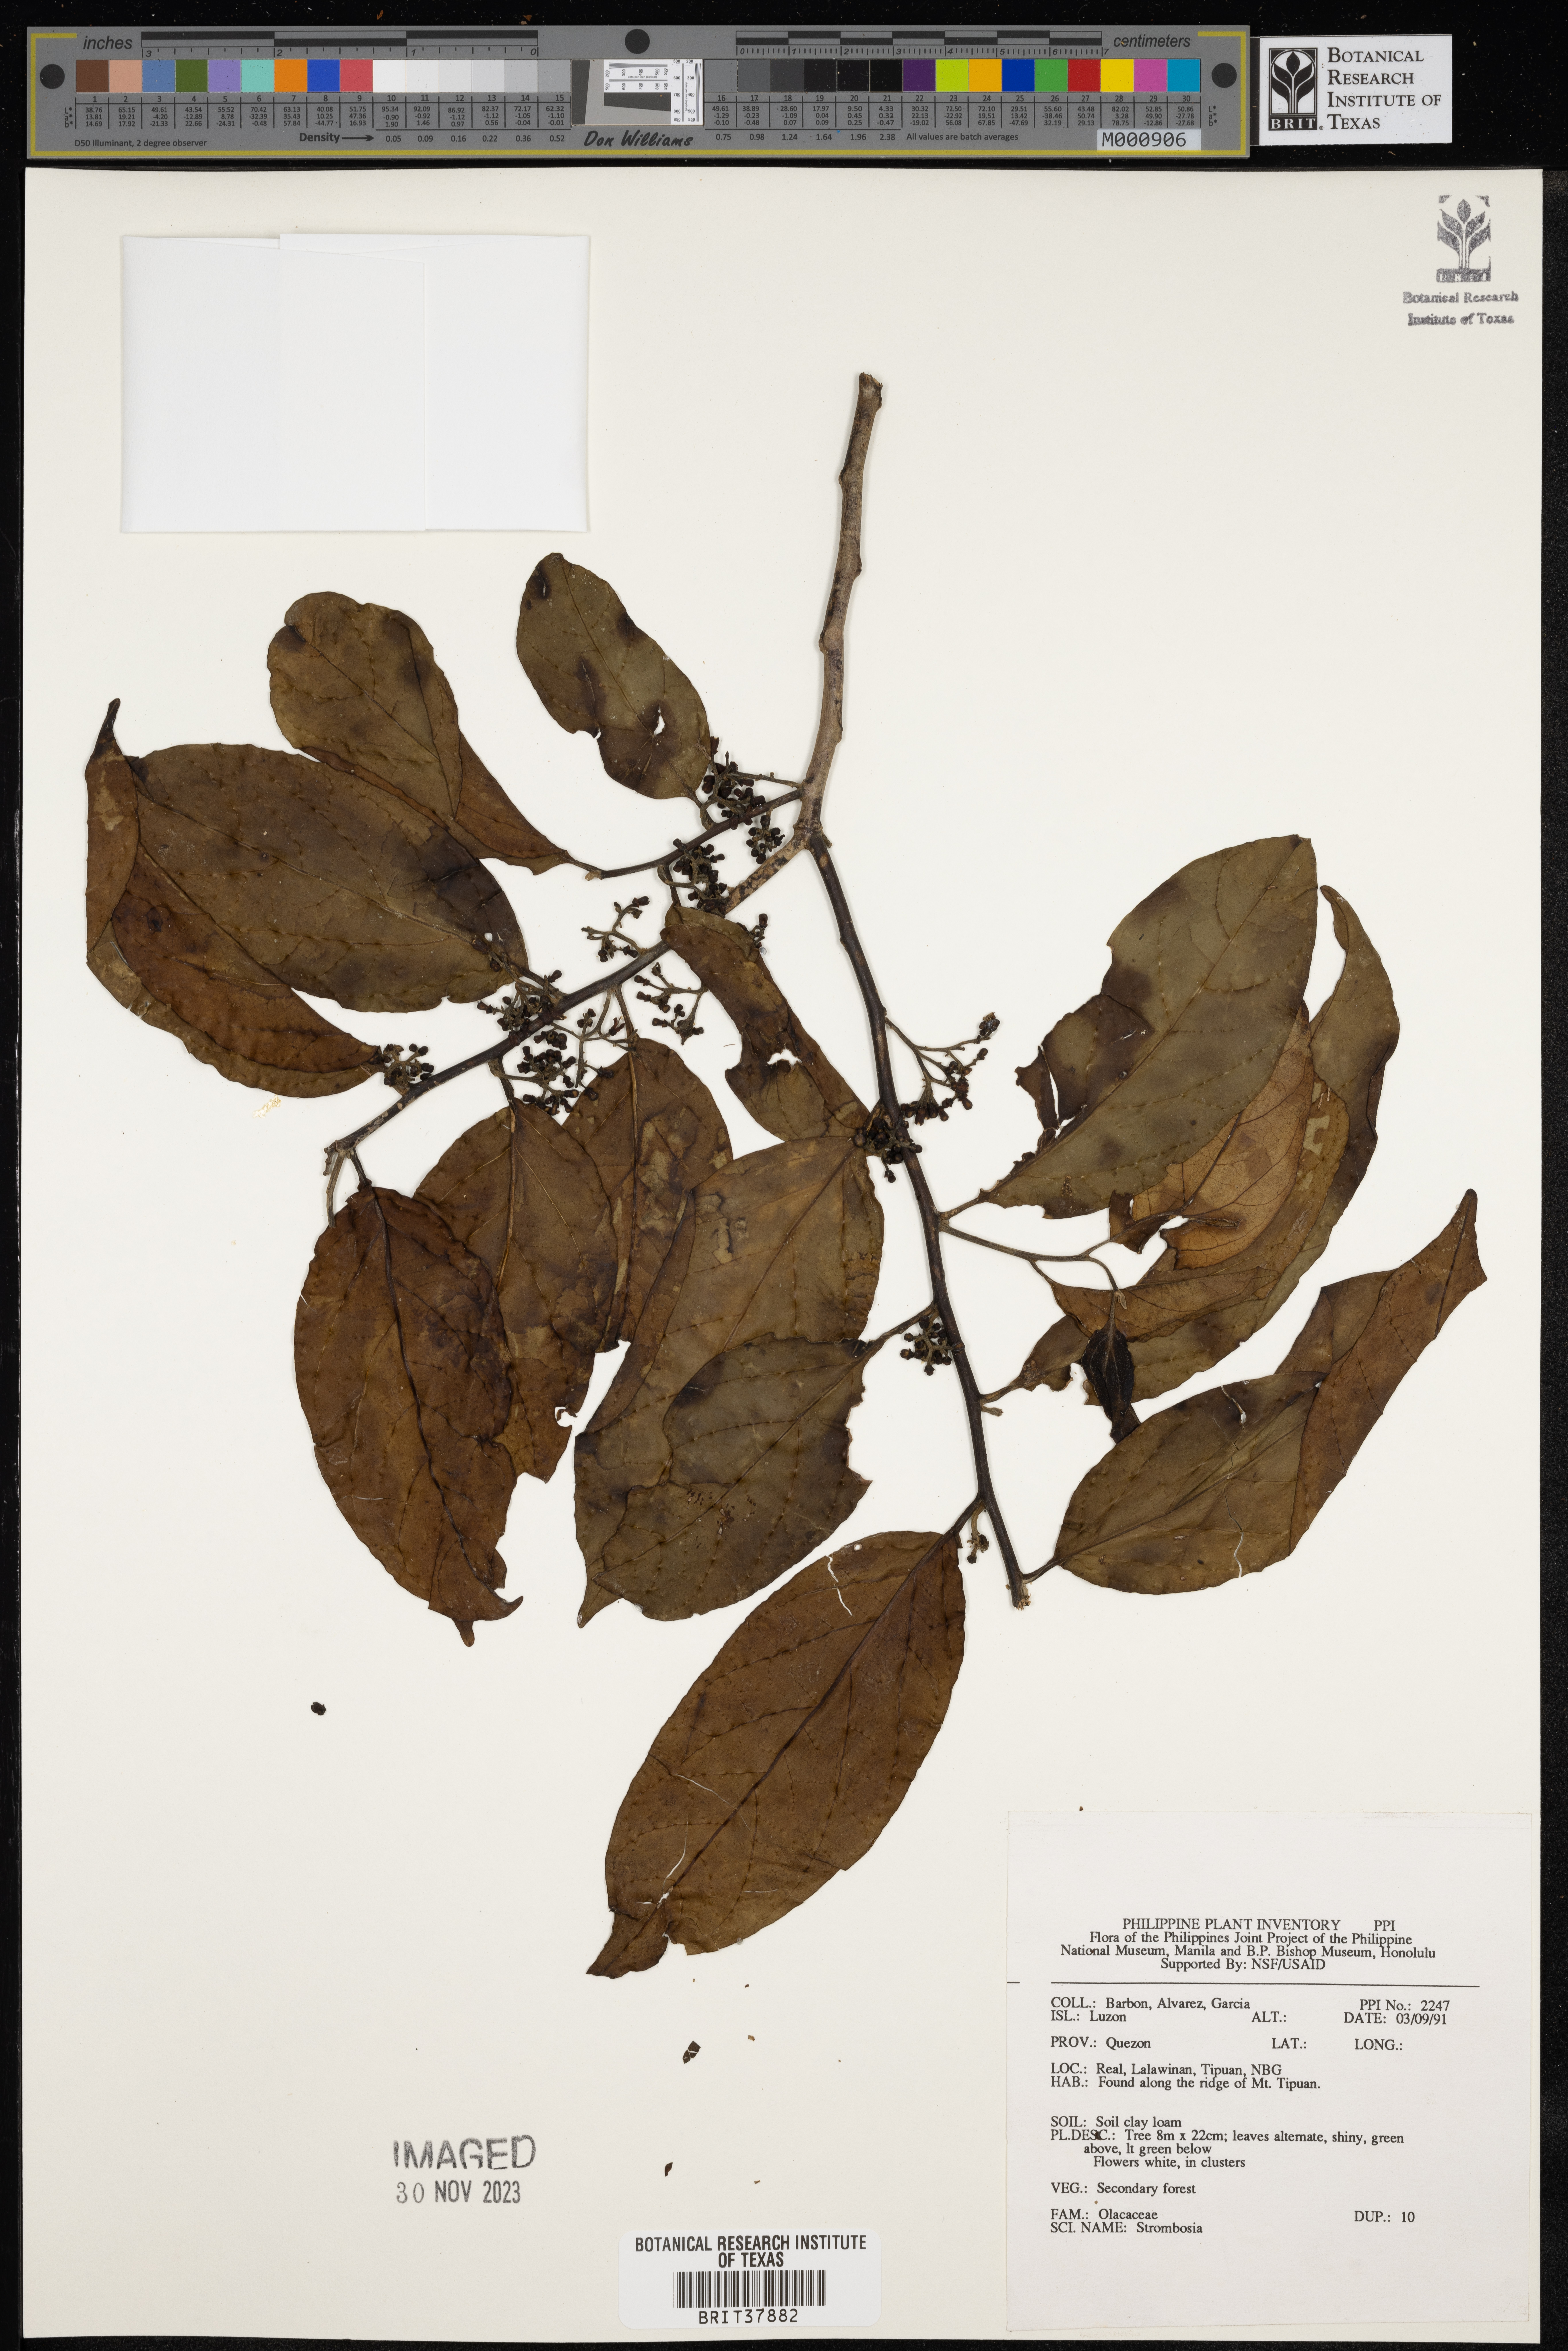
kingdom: Plantae
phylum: Tracheophyta
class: Magnoliopsida
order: Santalales
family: Strombosiaceae
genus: Strombosia
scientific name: Strombosia
